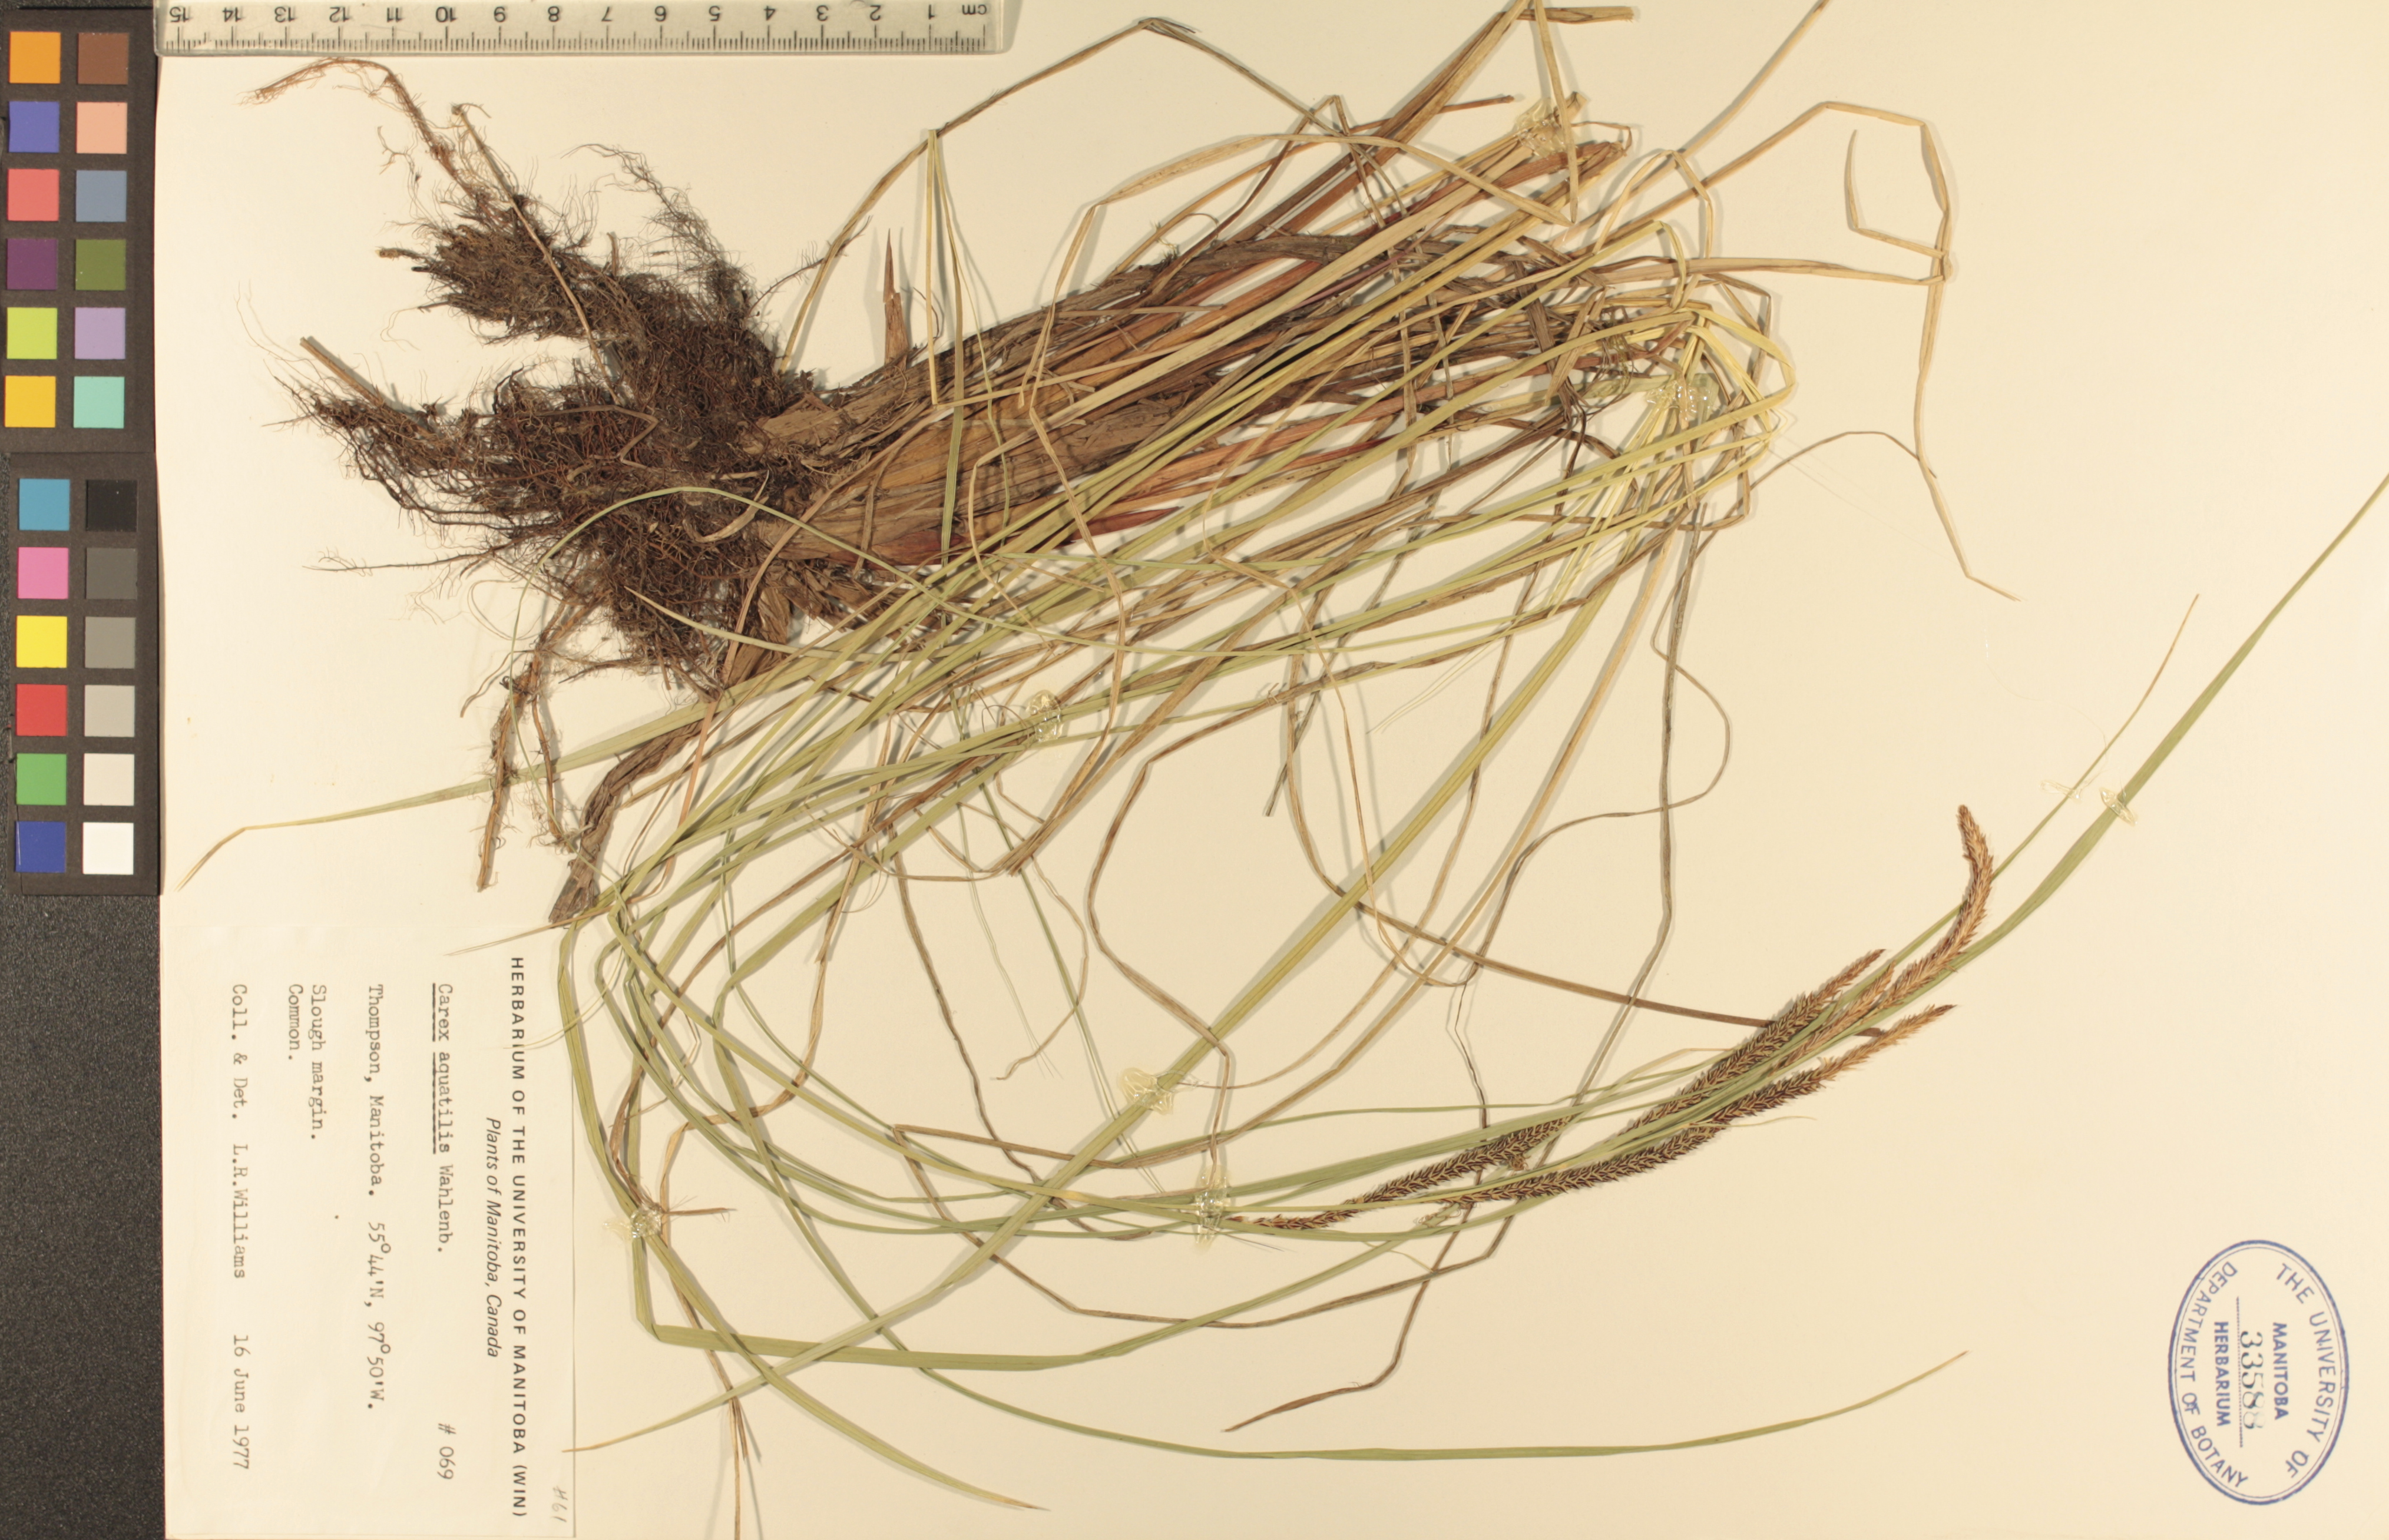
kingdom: Plantae
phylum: Tracheophyta
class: Liliopsida
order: Poales
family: Cyperaceae
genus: Carex
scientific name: Carex aquatilis
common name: Water sedge
